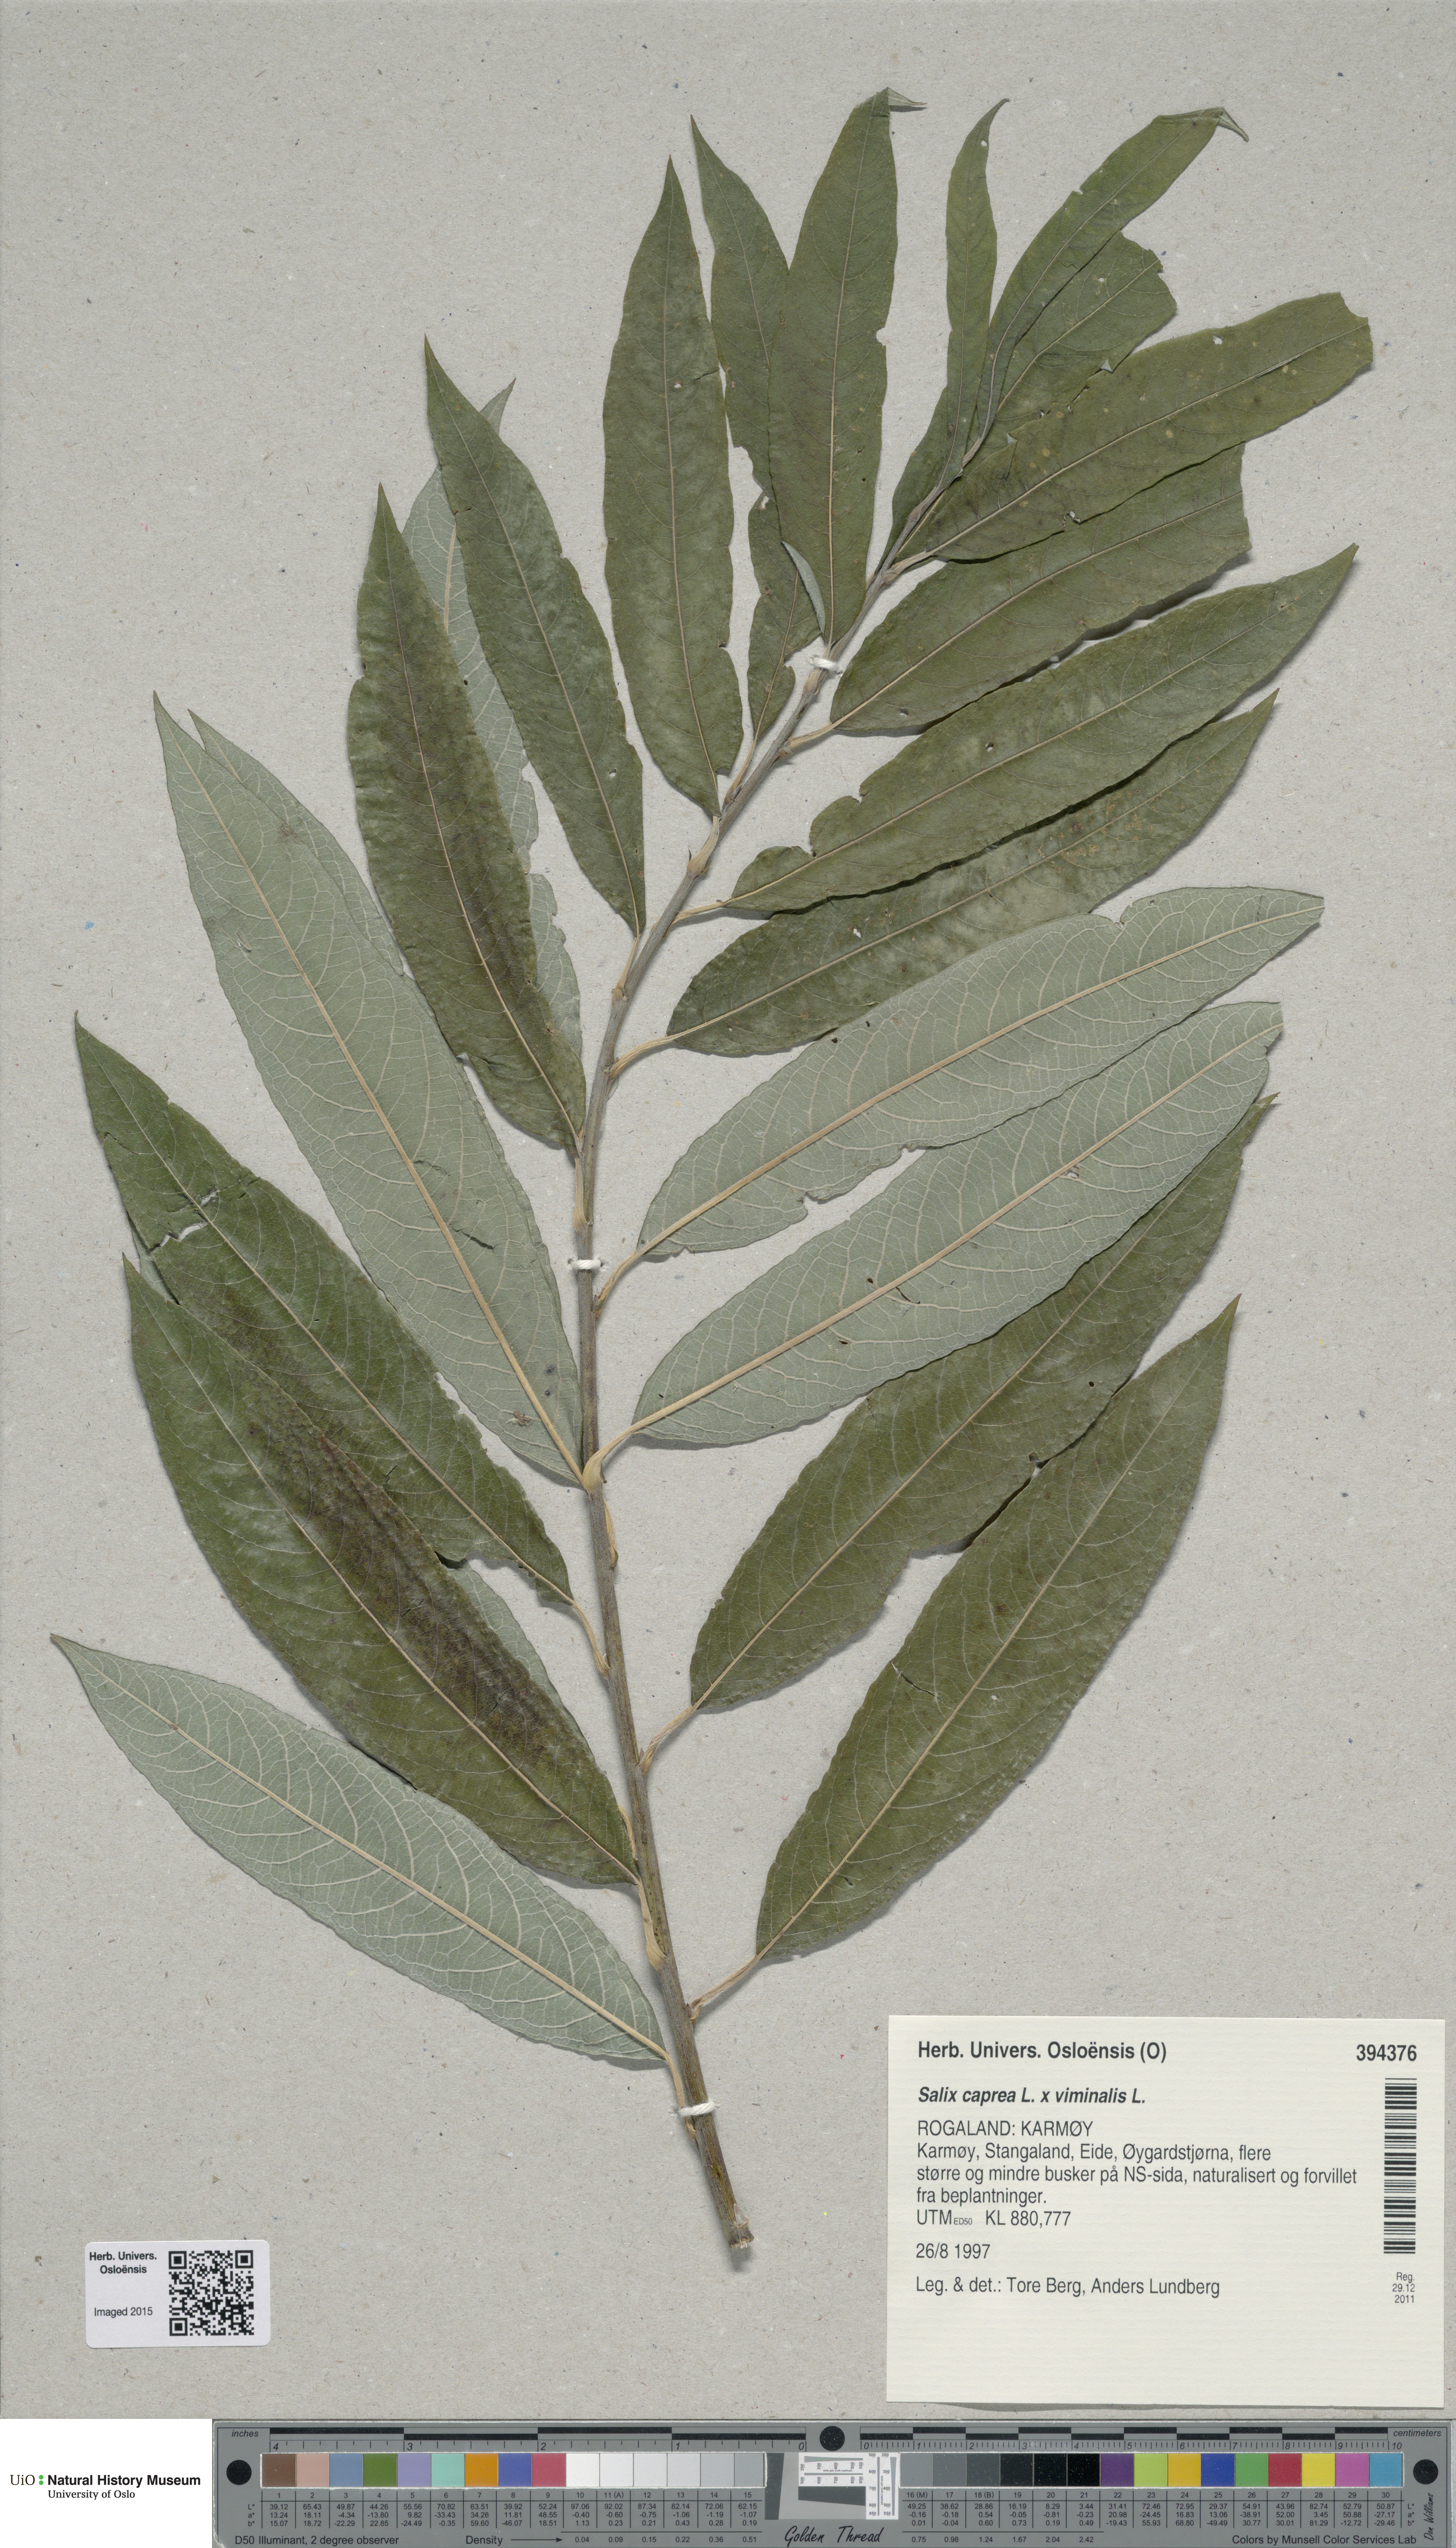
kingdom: Plantae
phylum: Tracheophyta
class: Magnoliopsida
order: Malpighiales
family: Salicaceae
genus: Salix
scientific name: Salix
